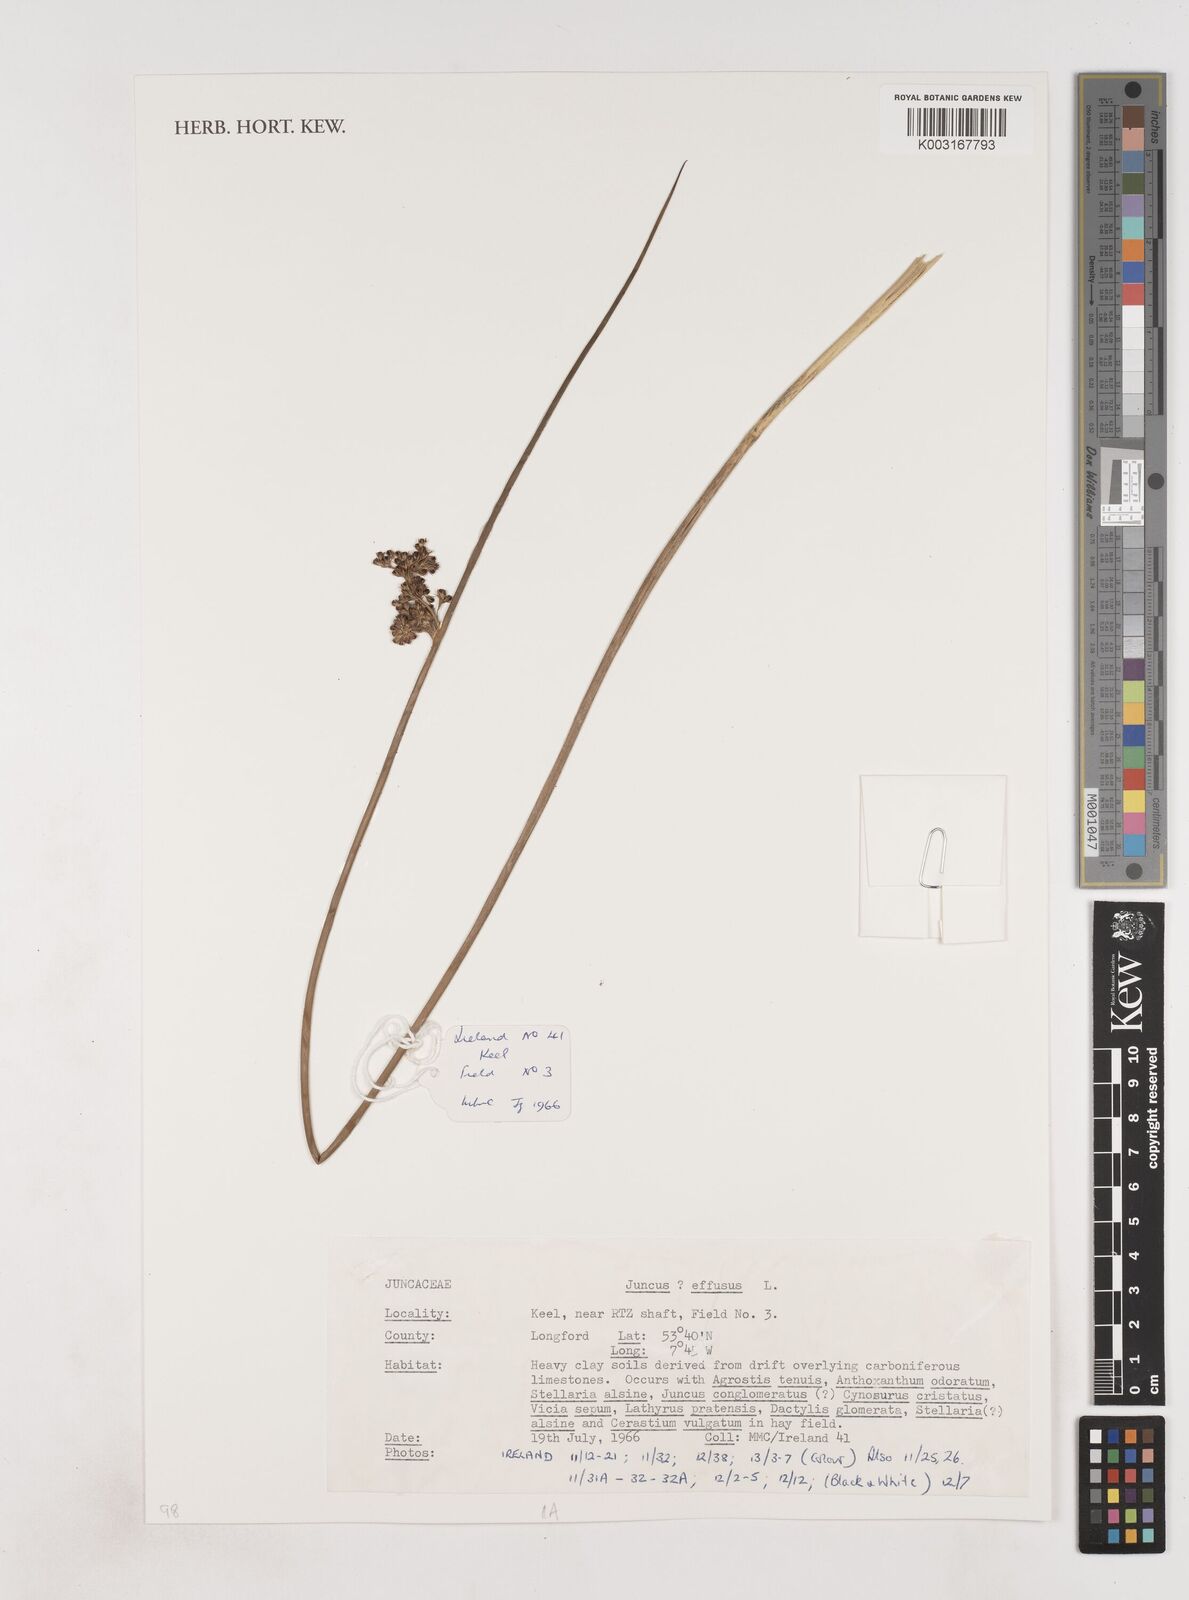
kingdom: Plantae
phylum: Tracheophyta
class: Liliopsida
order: Poales
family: Juncaceae
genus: Juncus
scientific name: Juncus effusus
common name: Soft rush
